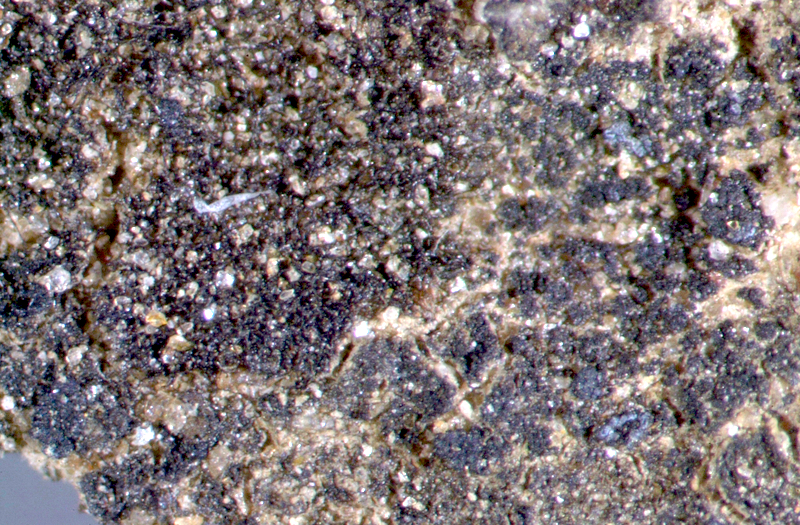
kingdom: Fungi
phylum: Ascomycota
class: Lichinomycetes
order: Lichinales
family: Peltulaceae
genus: Peltula
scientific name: Peltula patellata
